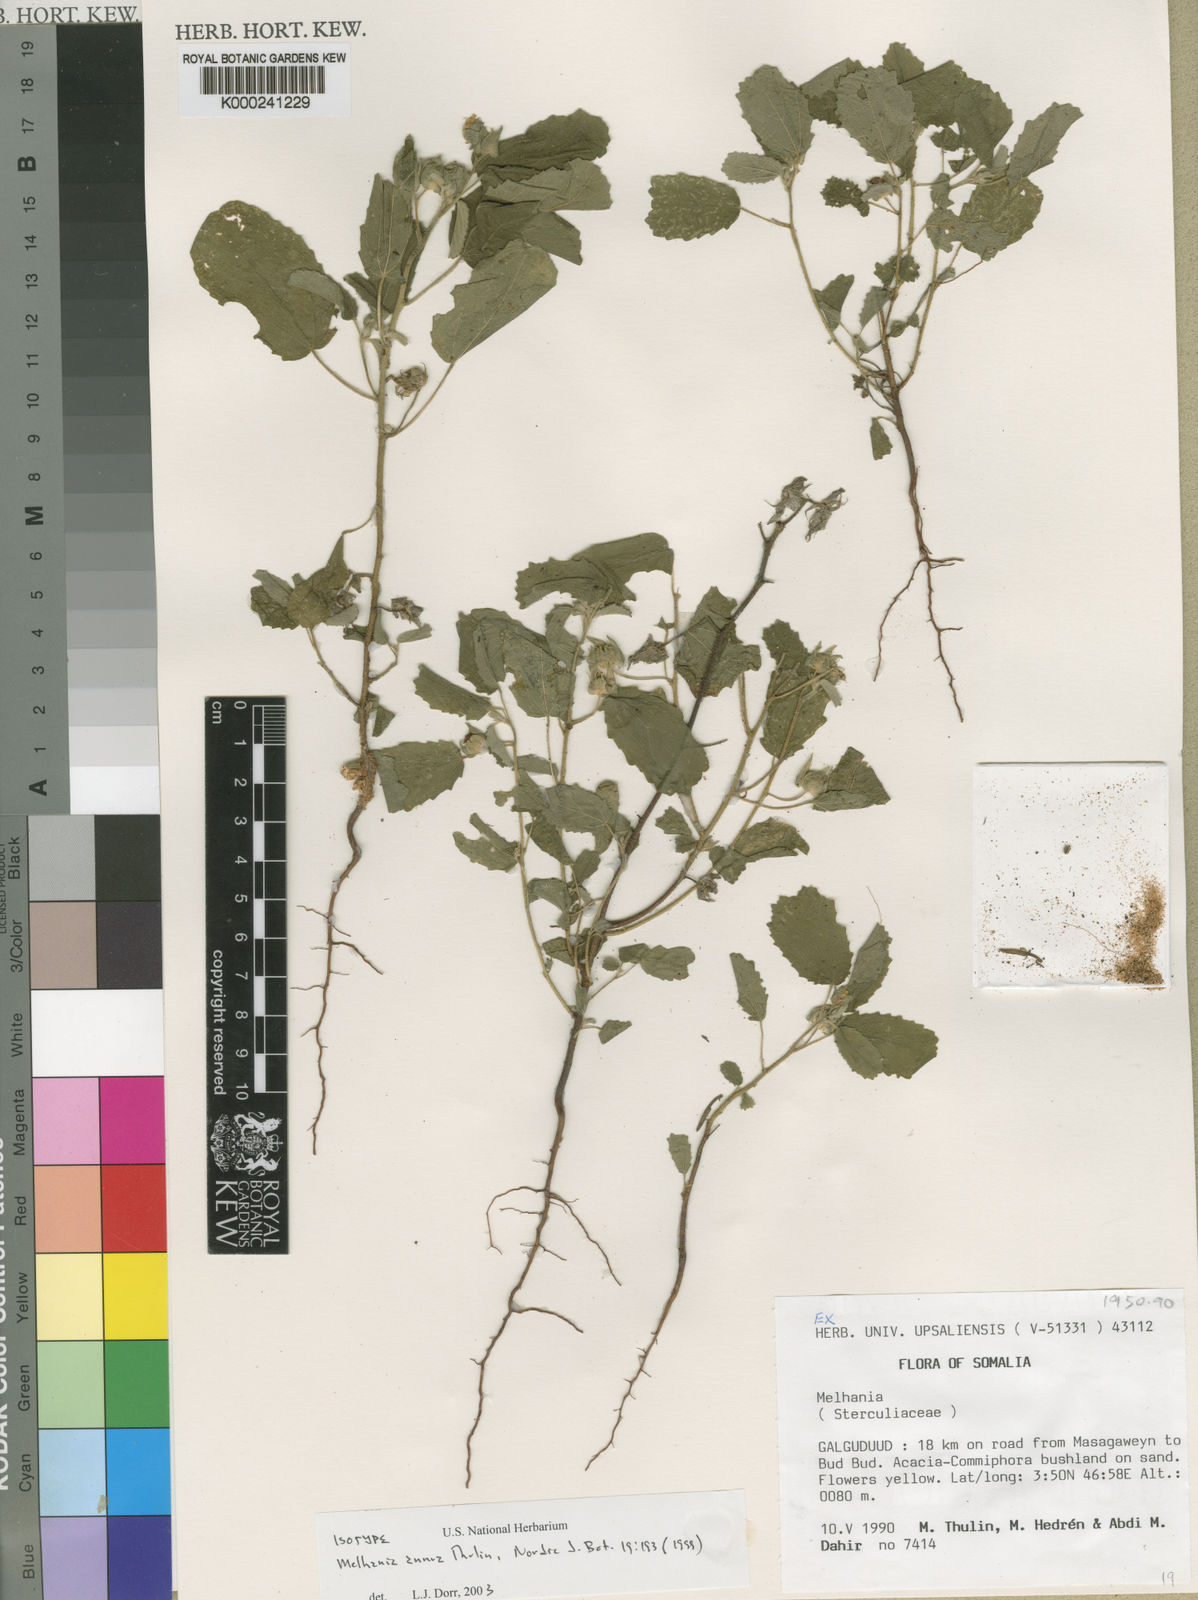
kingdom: Plantae
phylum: Tracheophyta
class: Magnoliopsida
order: Malvales
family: Malvaceae
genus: Melhania
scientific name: Melhania annua
